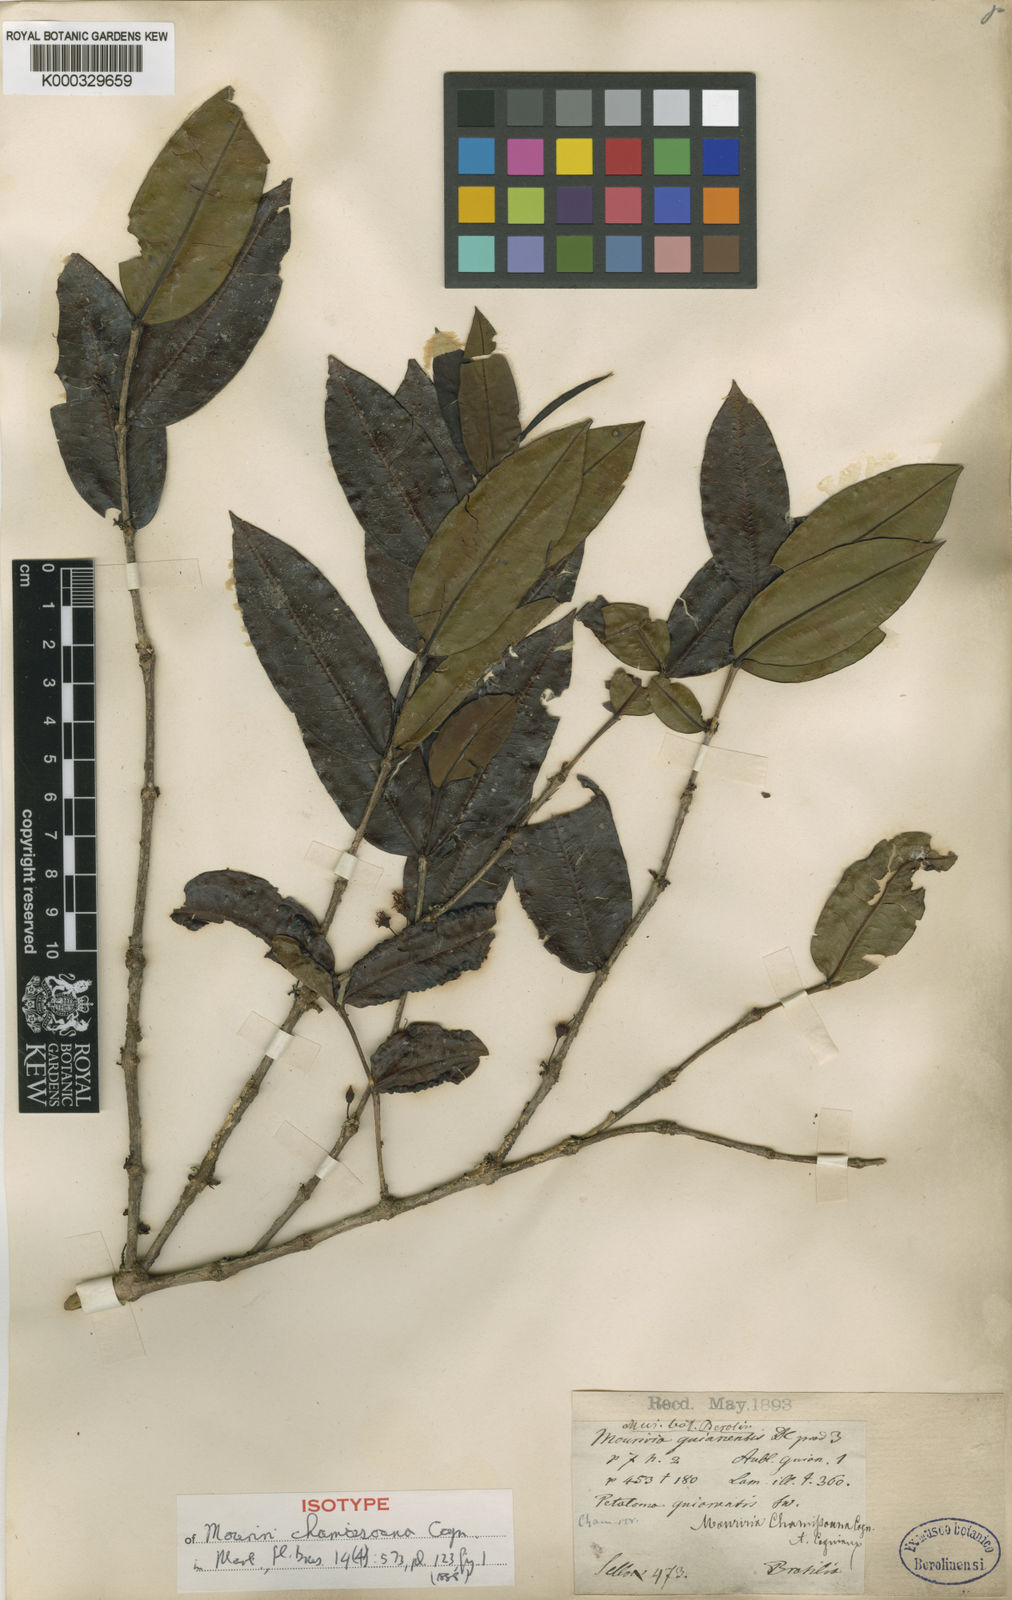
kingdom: Plantae
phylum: Tracheophyta
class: Magnoliopsida
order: Myrtales
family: Melastomataceae
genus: Mouriri
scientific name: Mouriri chamissoana
